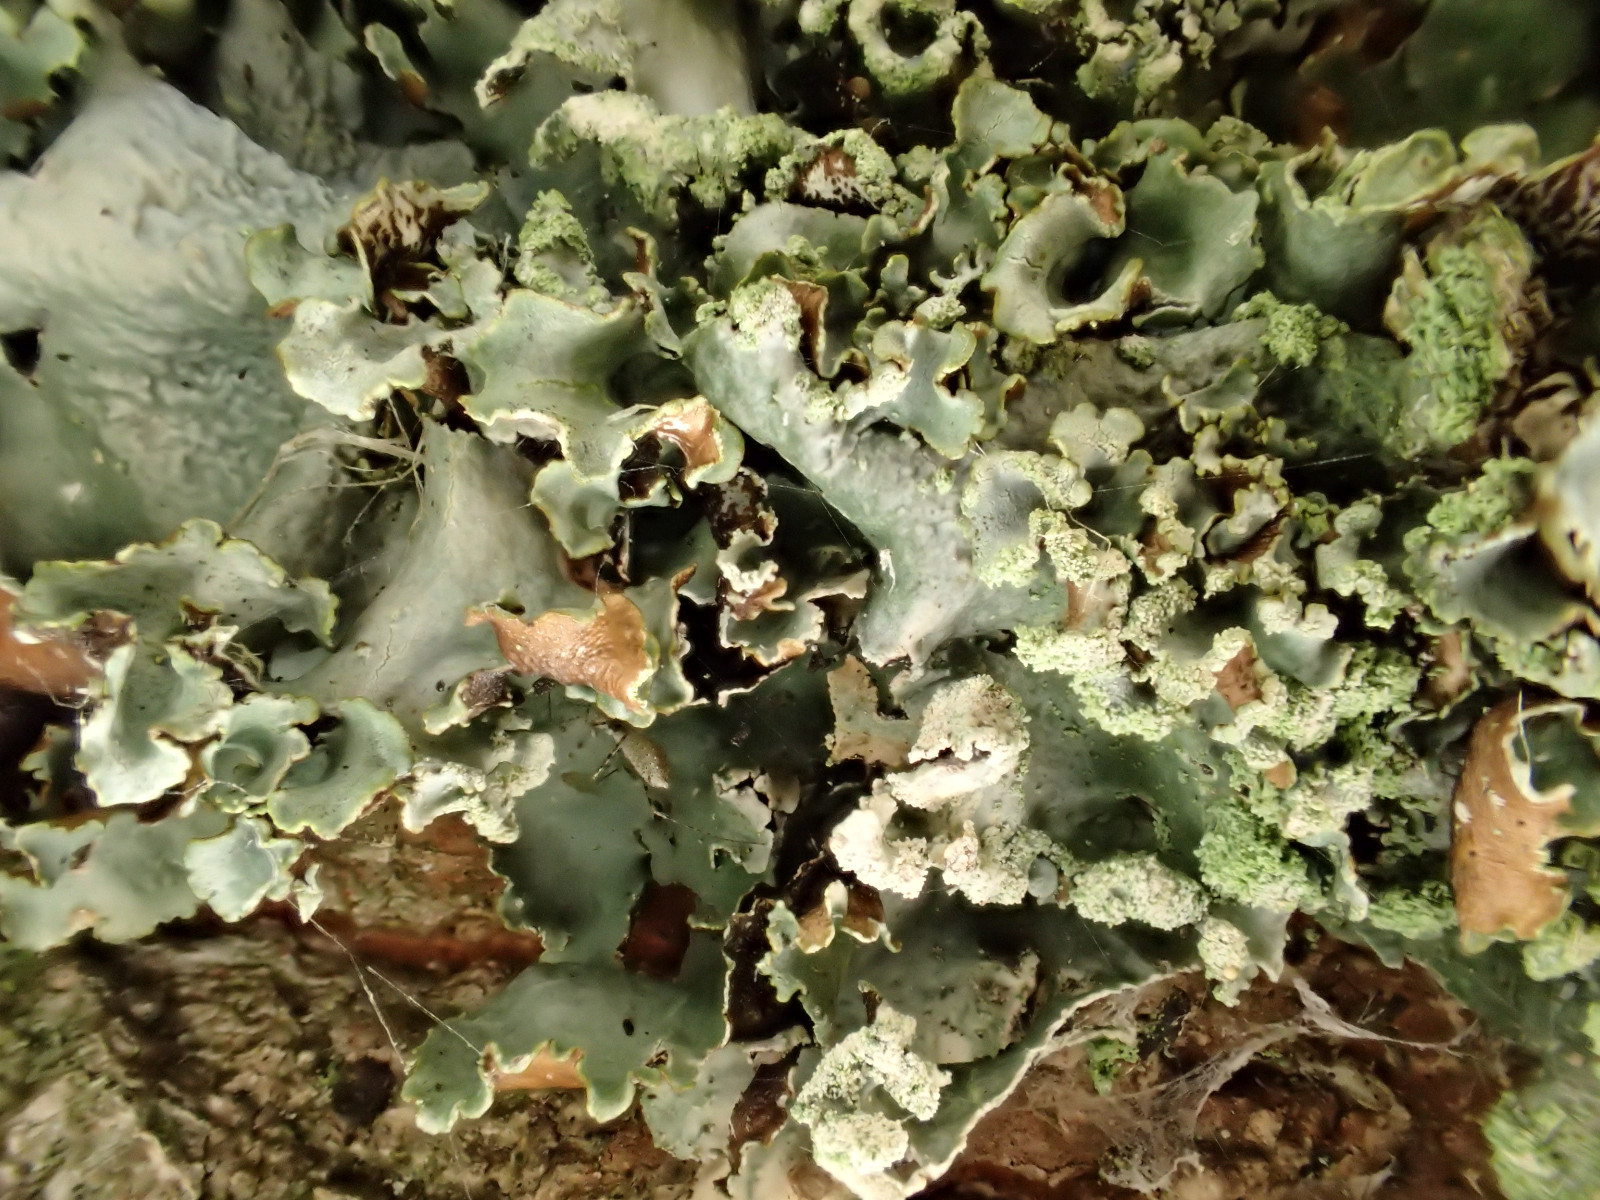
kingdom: Fungi
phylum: Ascomycota
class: Lecanoromycetes
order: Lecanorales
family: Parmeliaceae
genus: Platismatia
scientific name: Platismatia glauca
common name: blågrå papirlav
